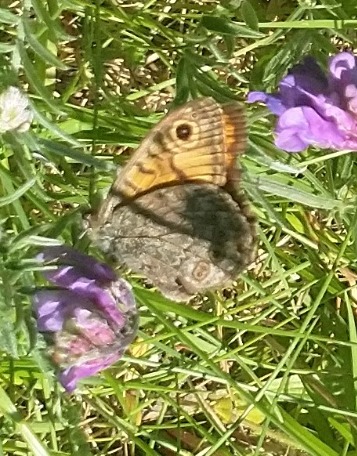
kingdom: Animalia
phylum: Arthropoda
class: Insecta
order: Lepidoptera
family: Nymphalidae
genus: Pararge
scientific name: Pararge Lasiommata megera
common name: Vejrandøje
